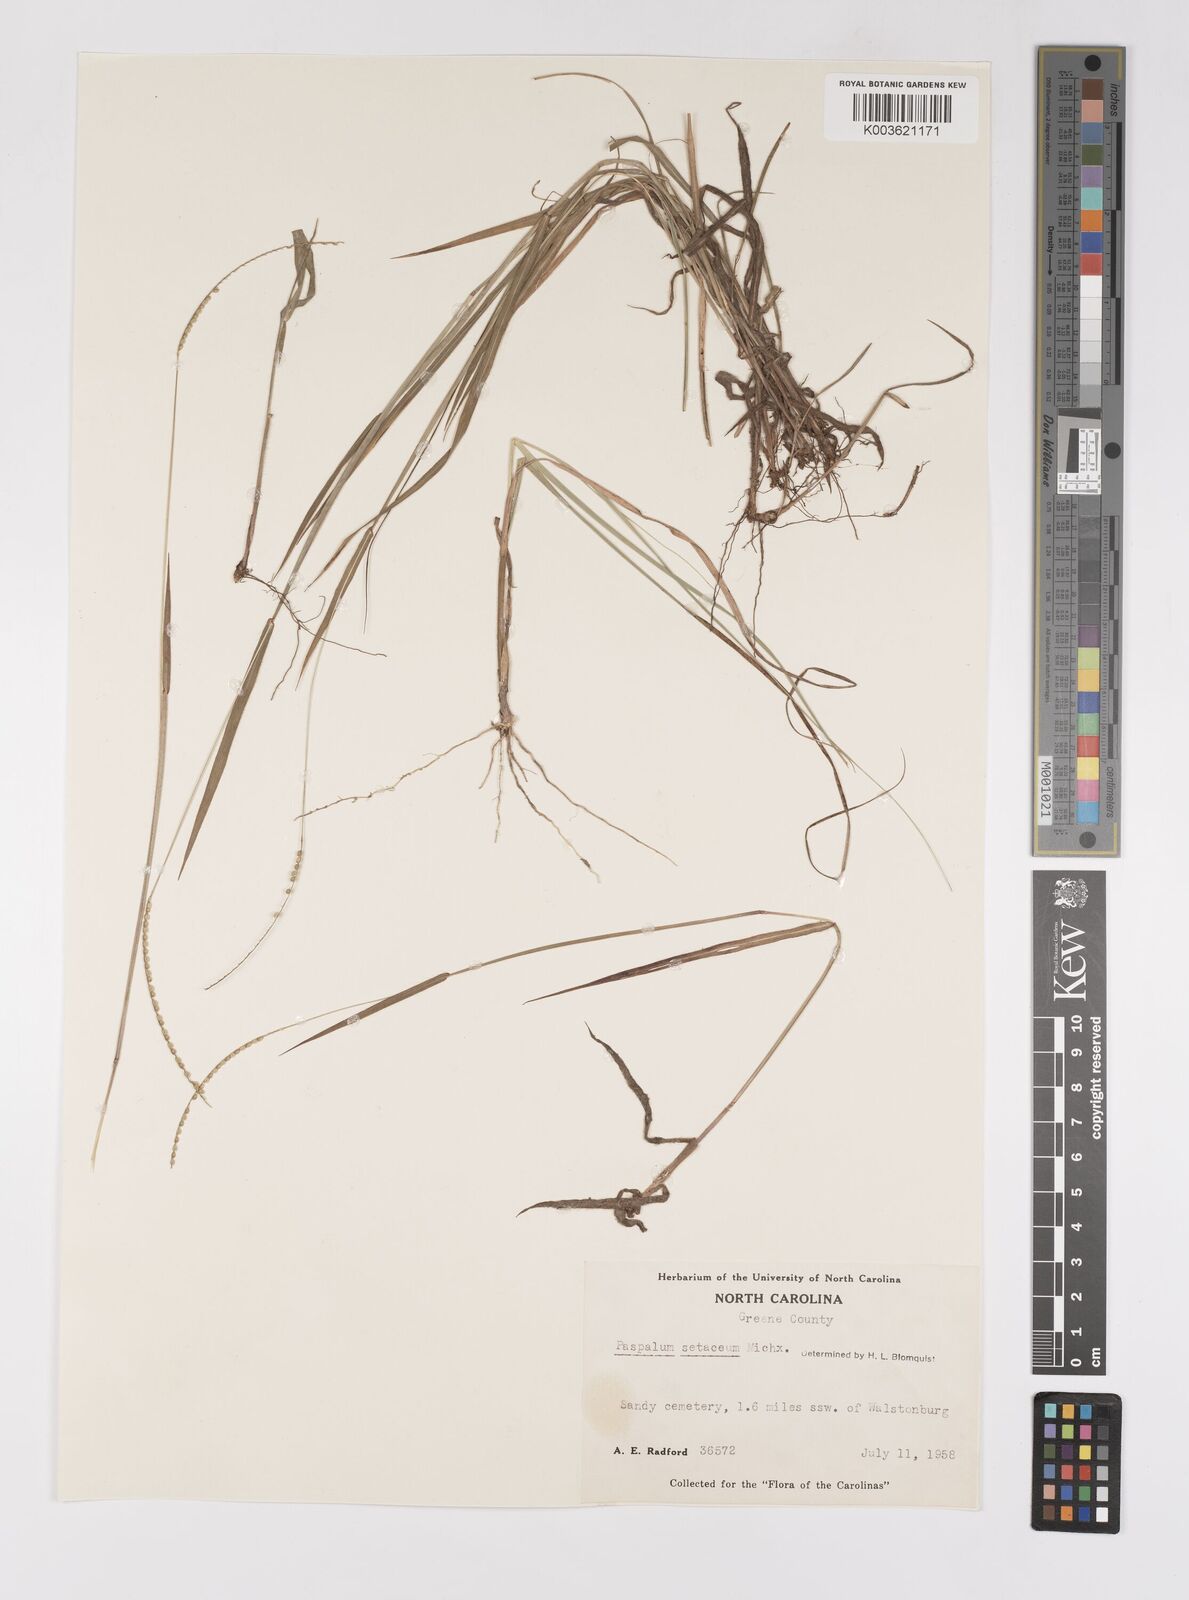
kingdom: Plantae
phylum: Tracheophyta
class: Liliopsida
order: Poales
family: Poaceae
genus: Paspalum
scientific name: Paspalum setaceum
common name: Slender paspalum
